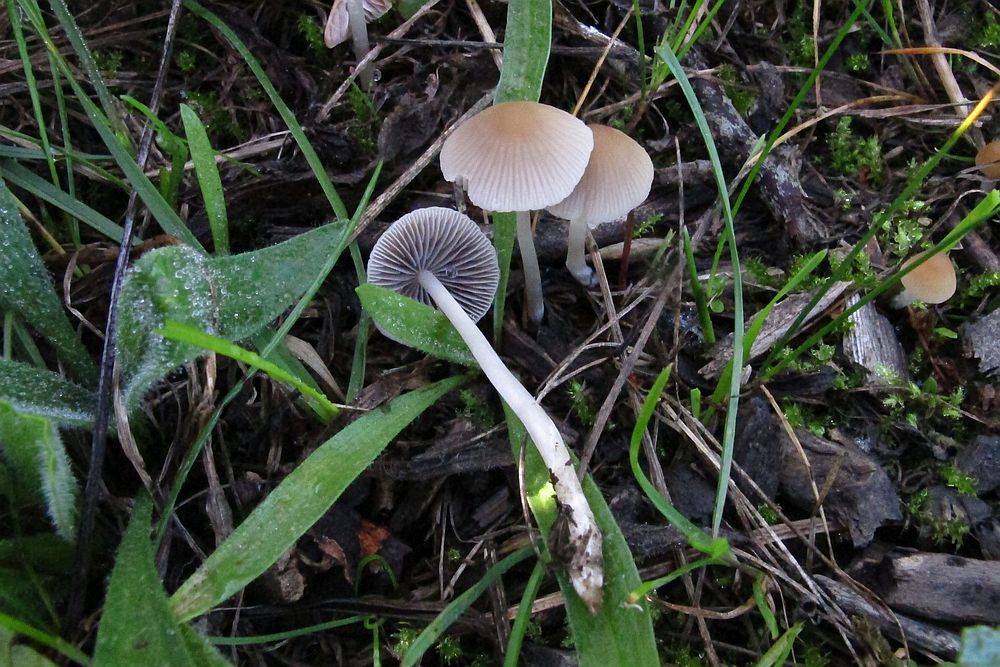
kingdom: Fungi
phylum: Basidiomycota
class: Agaricomycetes
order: Agaricales
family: Psathyrellaceae
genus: Psathyrella
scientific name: Psathyrella corrugis
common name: rødægget mørkhat
